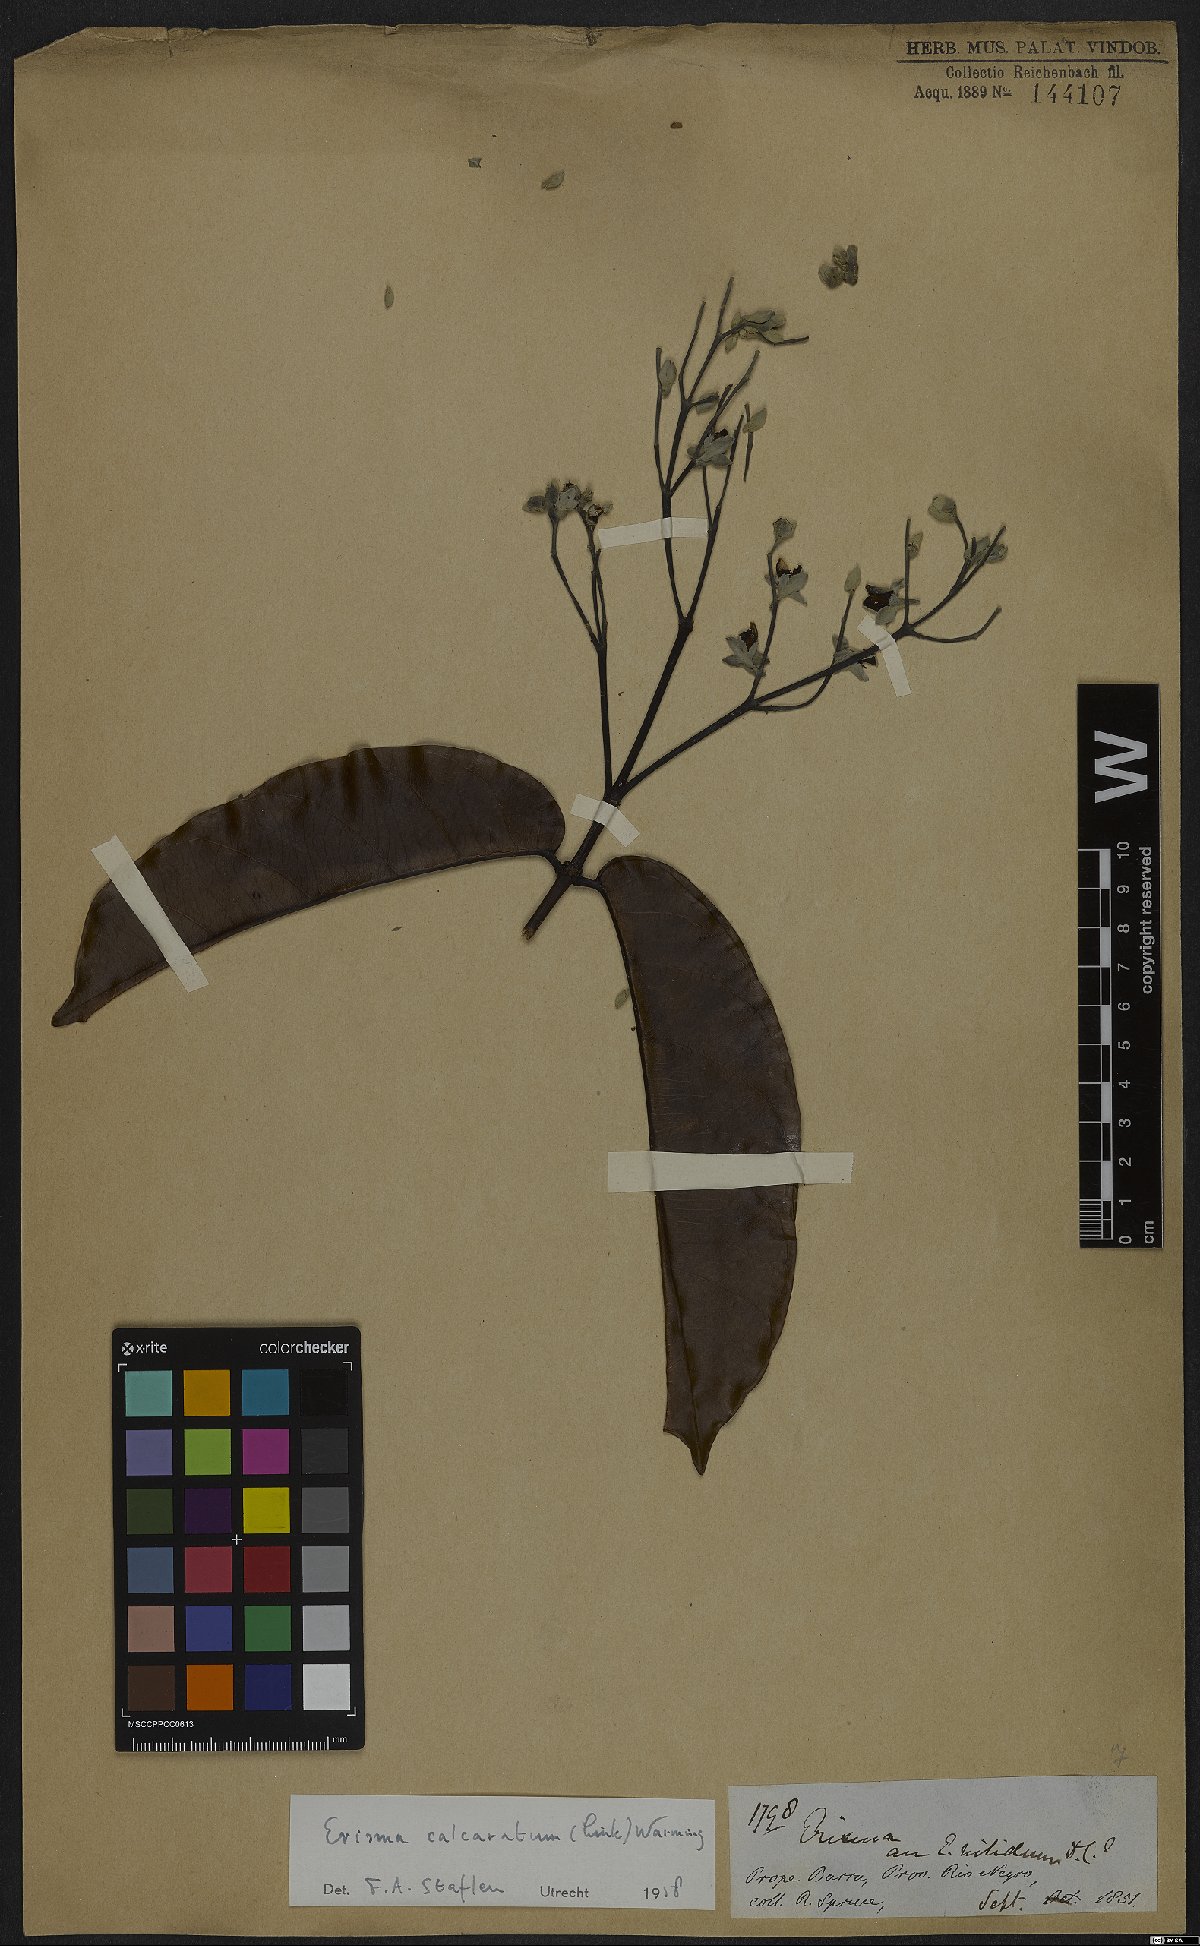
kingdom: Plantae
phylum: Tracheophyta
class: Magnoliopsida
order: Myrtales
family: Vochysiaceae
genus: Erisma
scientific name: Erisma calcaratum
